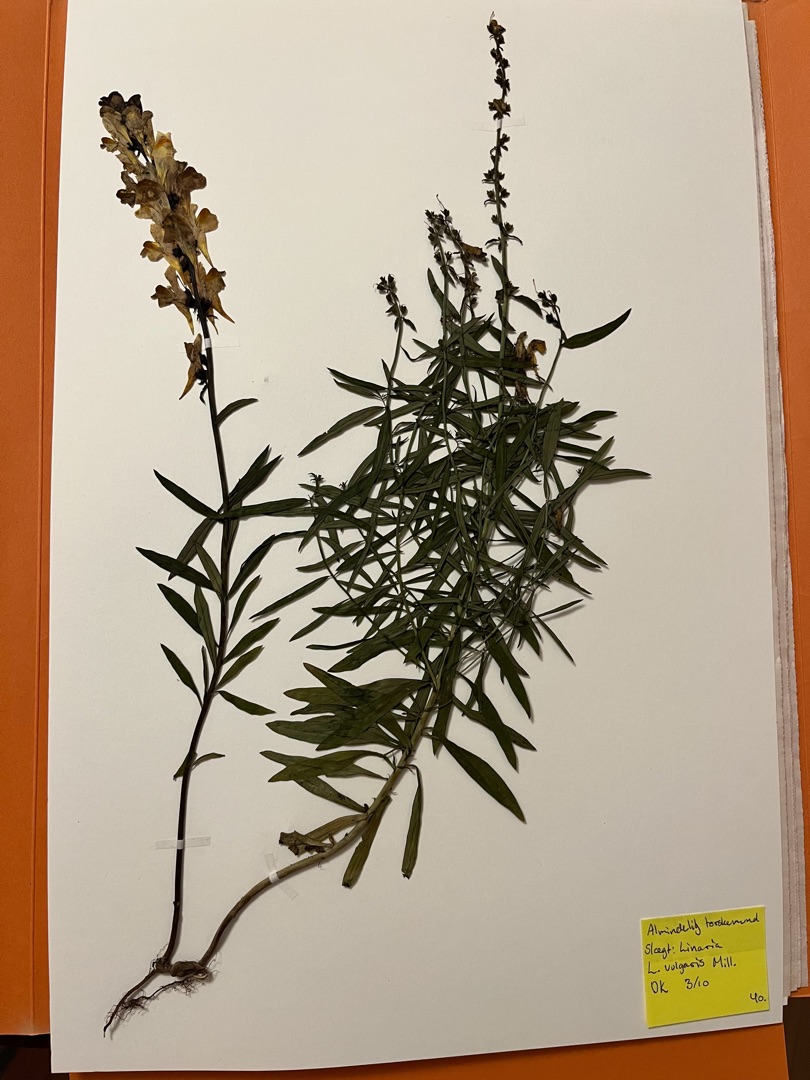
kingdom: Plantae
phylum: Tracheophyta
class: Magnoliopsida
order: Lamiales
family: Plantaginaceae
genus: Linaria
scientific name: Linaria vulgaris
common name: Almindelig torskemund
